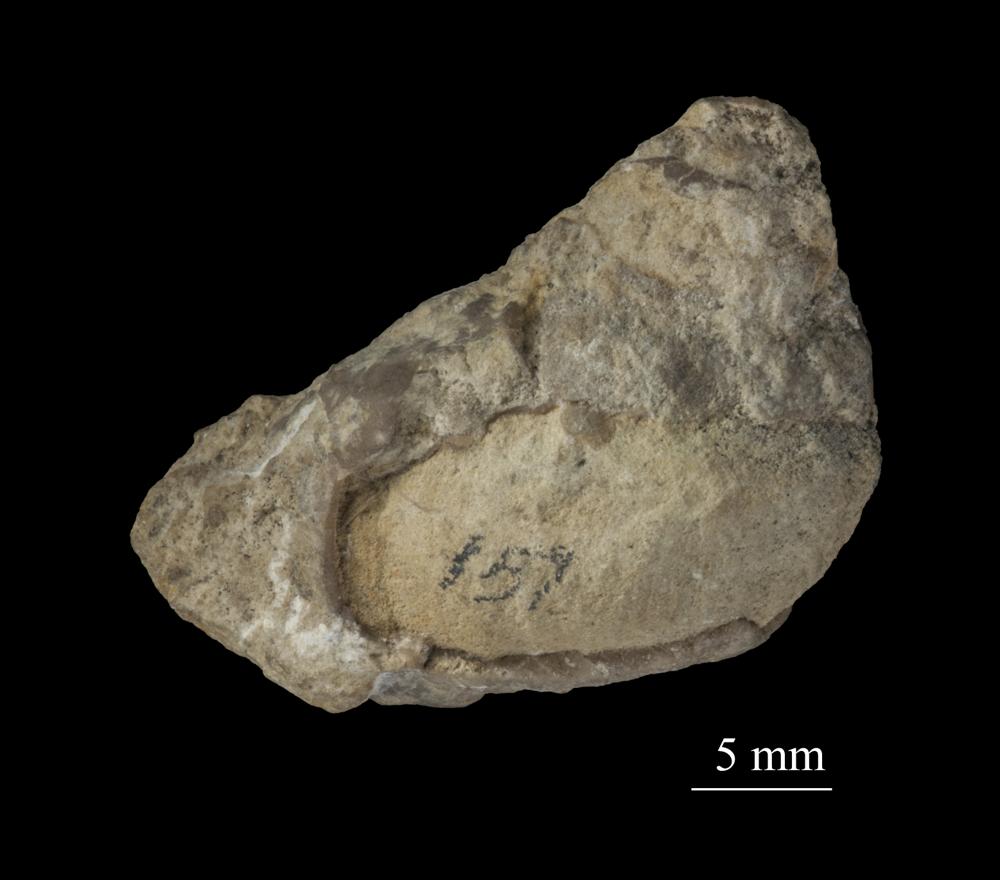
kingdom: Animalia
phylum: Mollusca
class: Gastropoda
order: Pleurotomariida
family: Phanerotrematidae
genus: Brachytomaria
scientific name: Brachytomaria Pleurotomaria baltica
